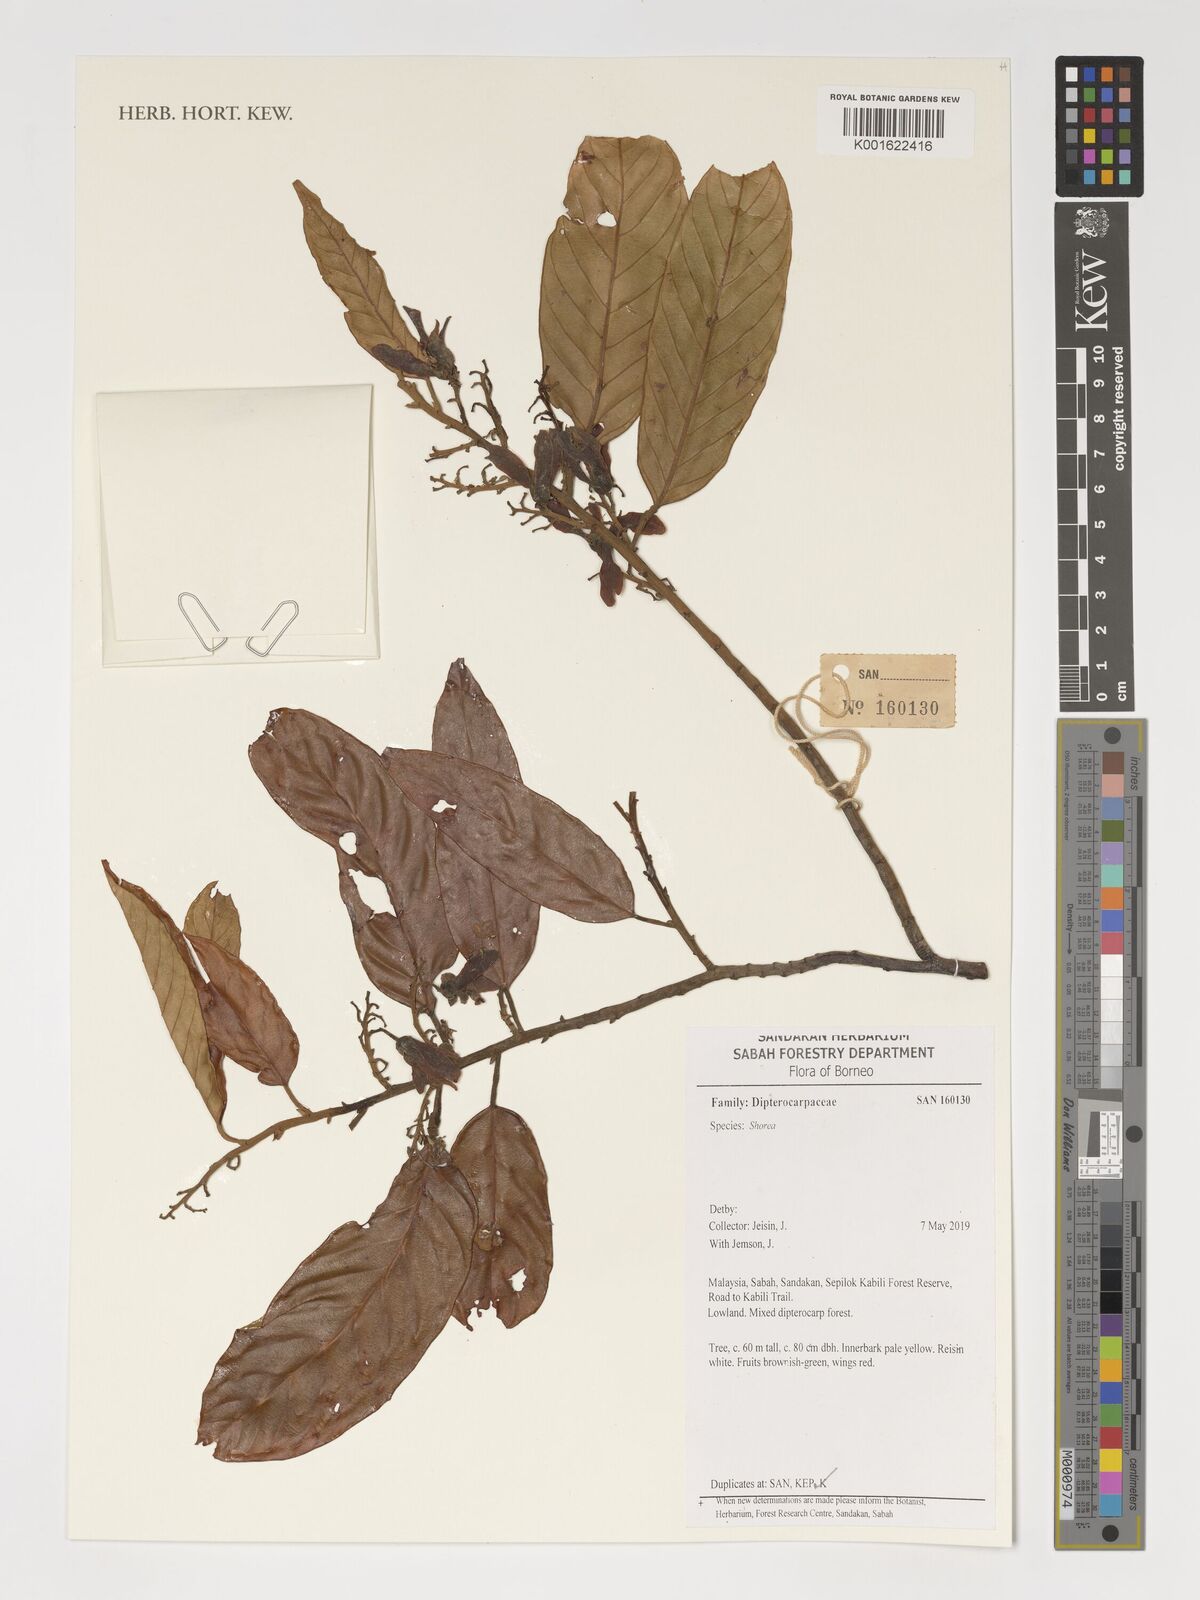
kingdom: Plantae
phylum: Tracheophyta
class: Magnoliopsida
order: Malvales
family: Dipterocarpaceae
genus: Shorea
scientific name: Shorea
